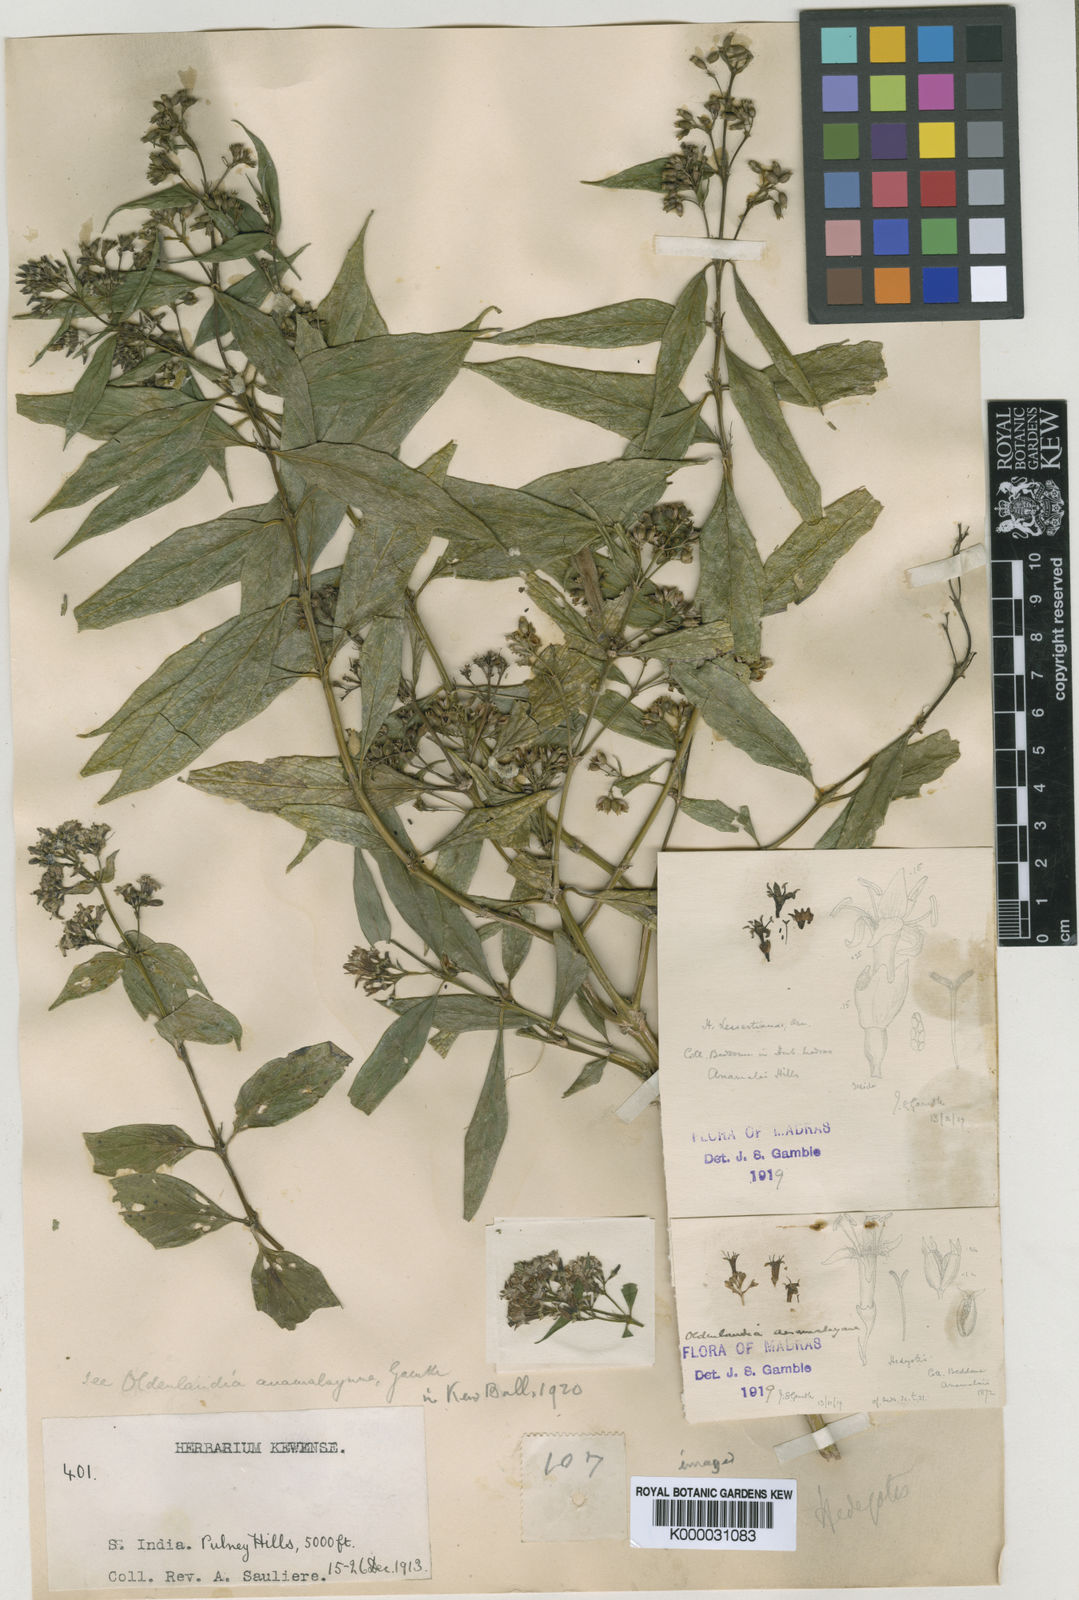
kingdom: Plantae
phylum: Tracheophyta
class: Magnoliopsida
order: Gentianales
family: Rubiaceae
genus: Hedyotis
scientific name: Hedyotis leschenaultiana
